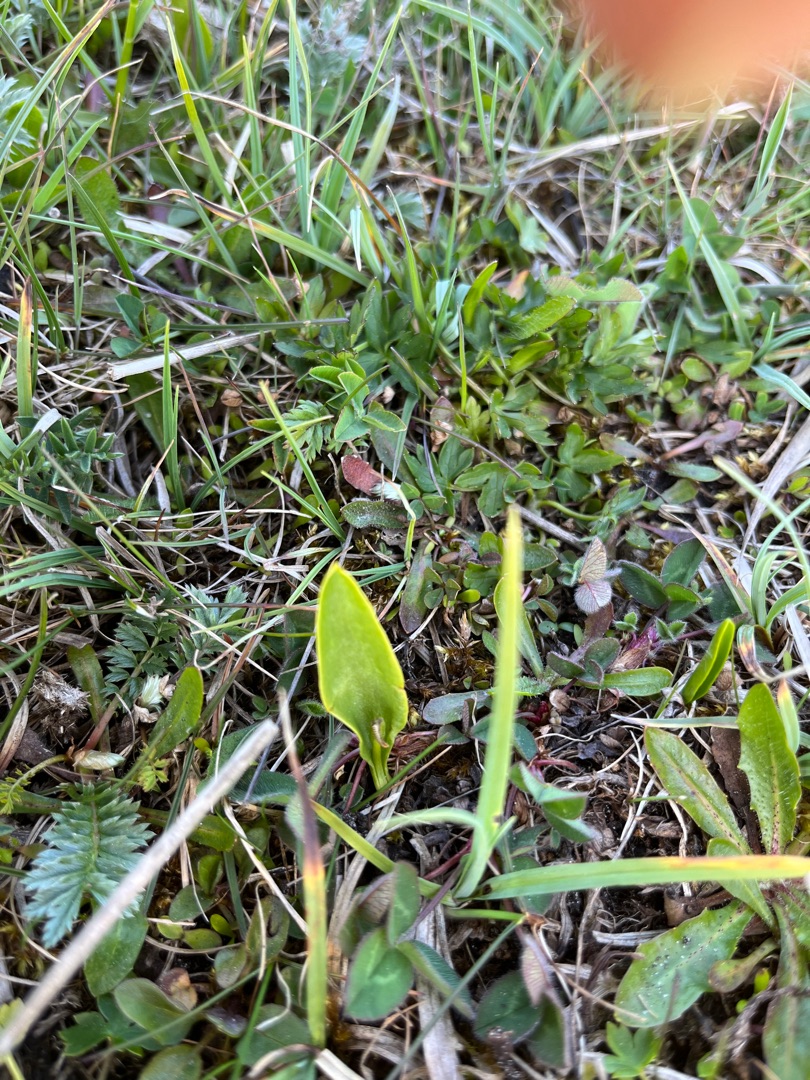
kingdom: Plantae
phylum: Tracheophyta
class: Polypodiopsida
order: Ophioglossales
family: Ophioglossaceae
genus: Ophioglossum
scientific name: Ophioglossum vulgatum
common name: Slangetunge
